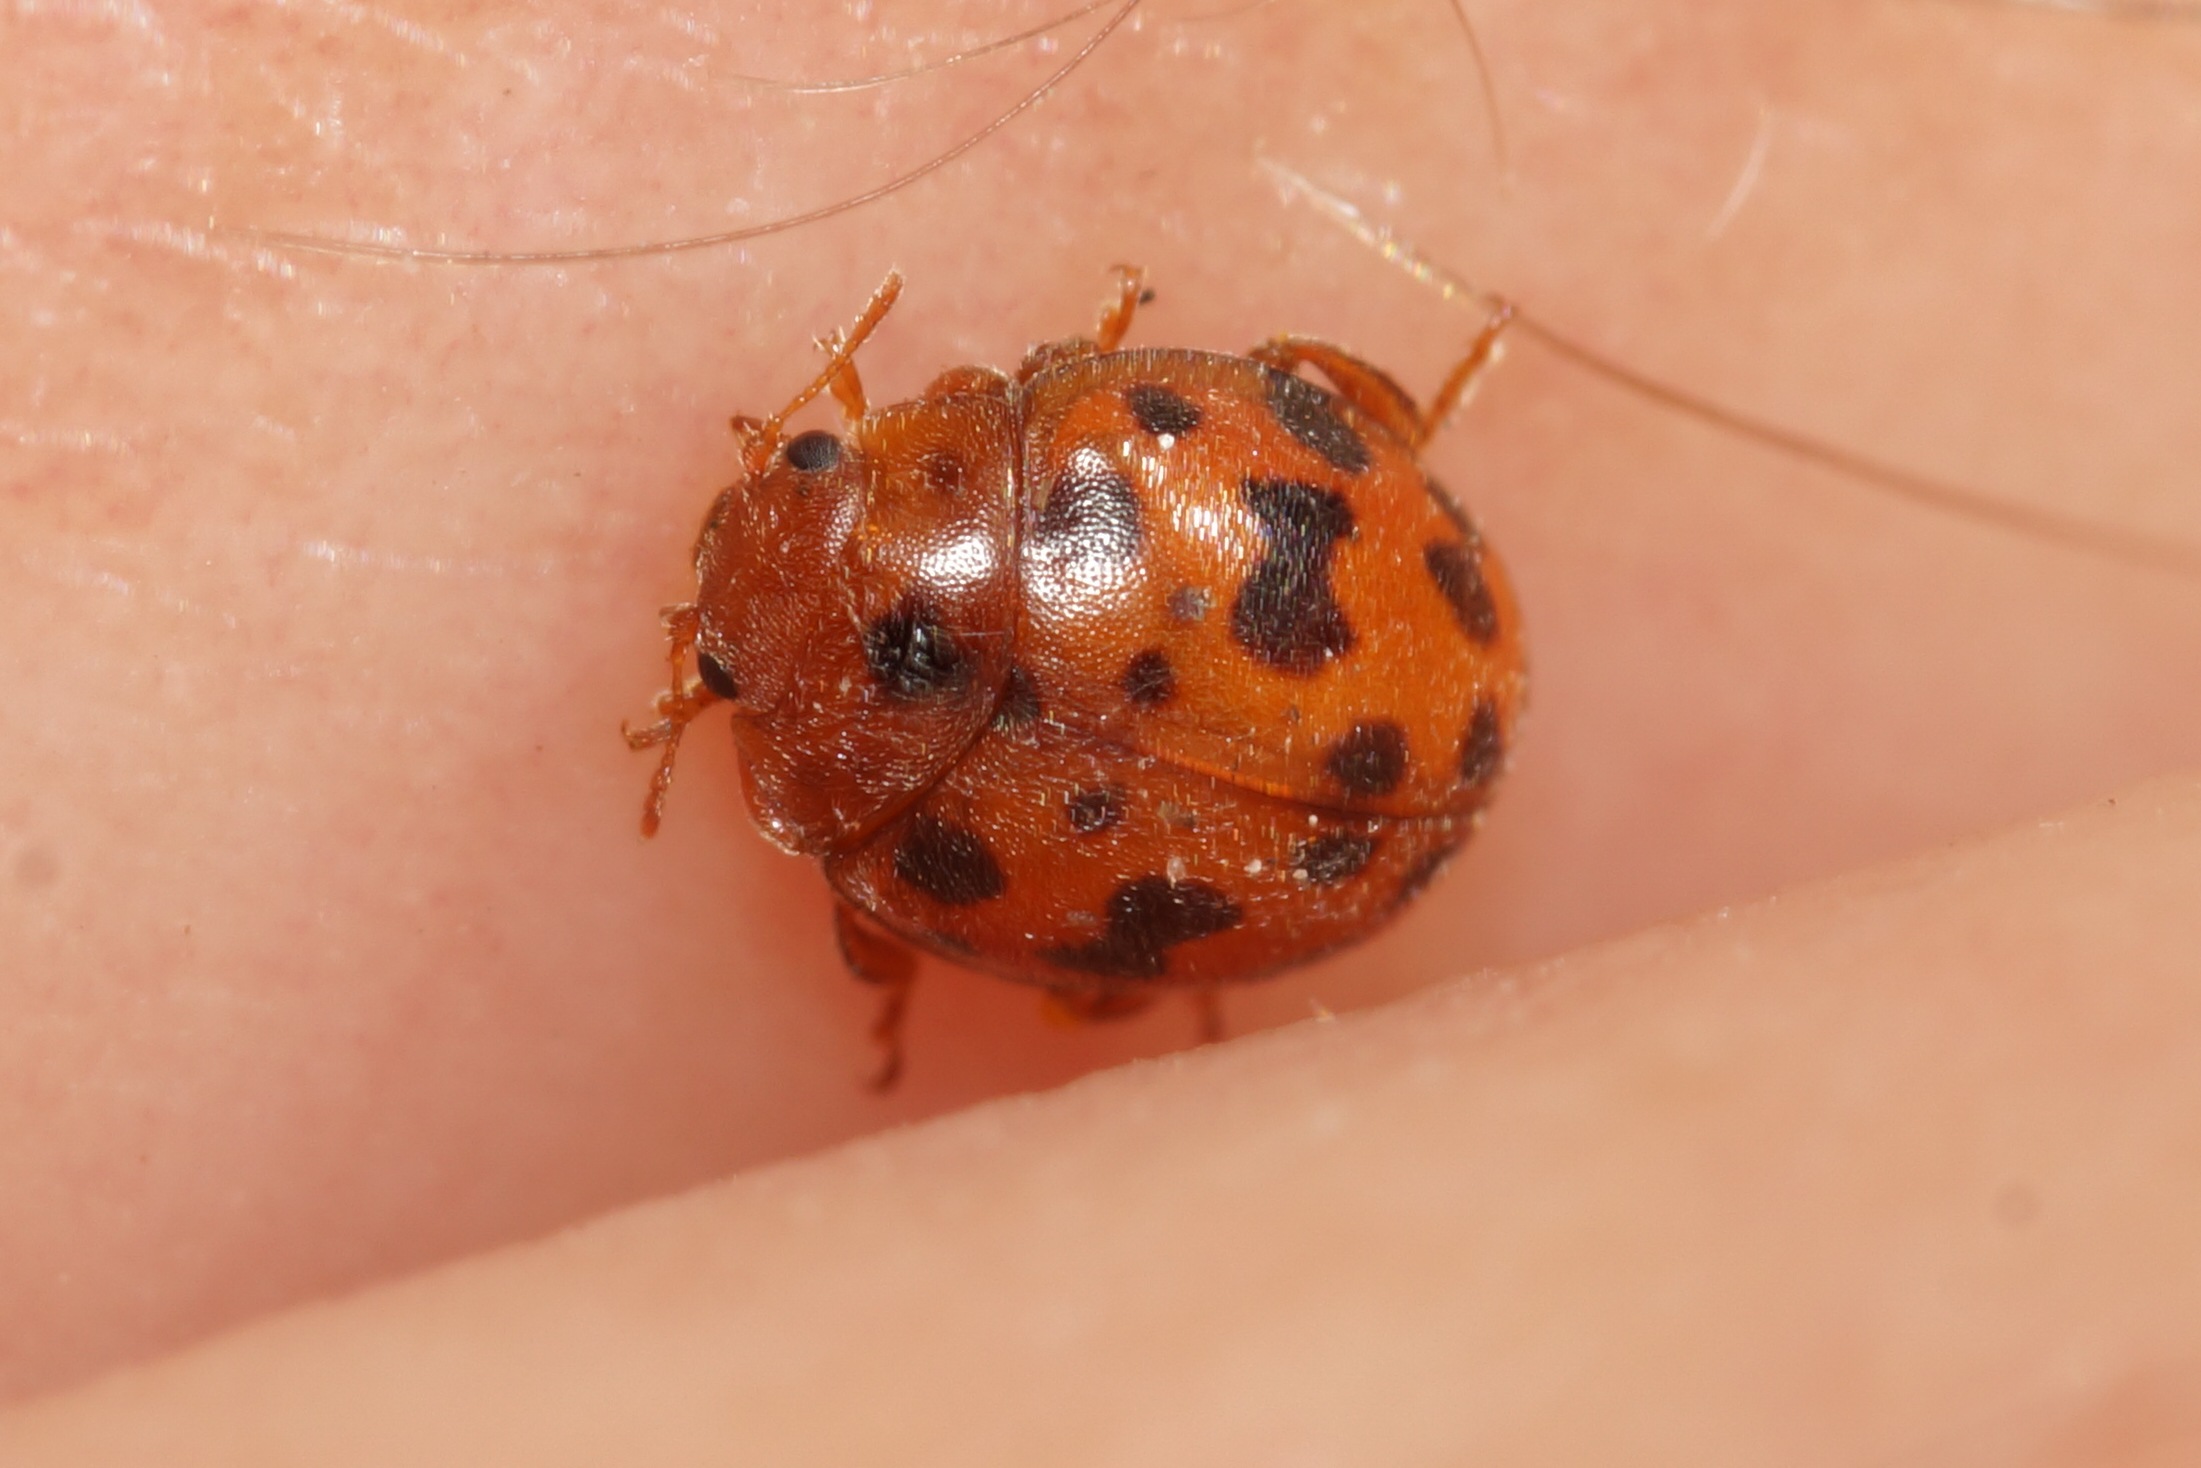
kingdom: Animalia
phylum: Arthropoda
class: Insecta
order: Coleoptera
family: Coccinellidae
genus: Subcoccinella
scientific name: Subcoccinella vigintiquatuorpunctata
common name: Fireogtyveplettet mariehøne
